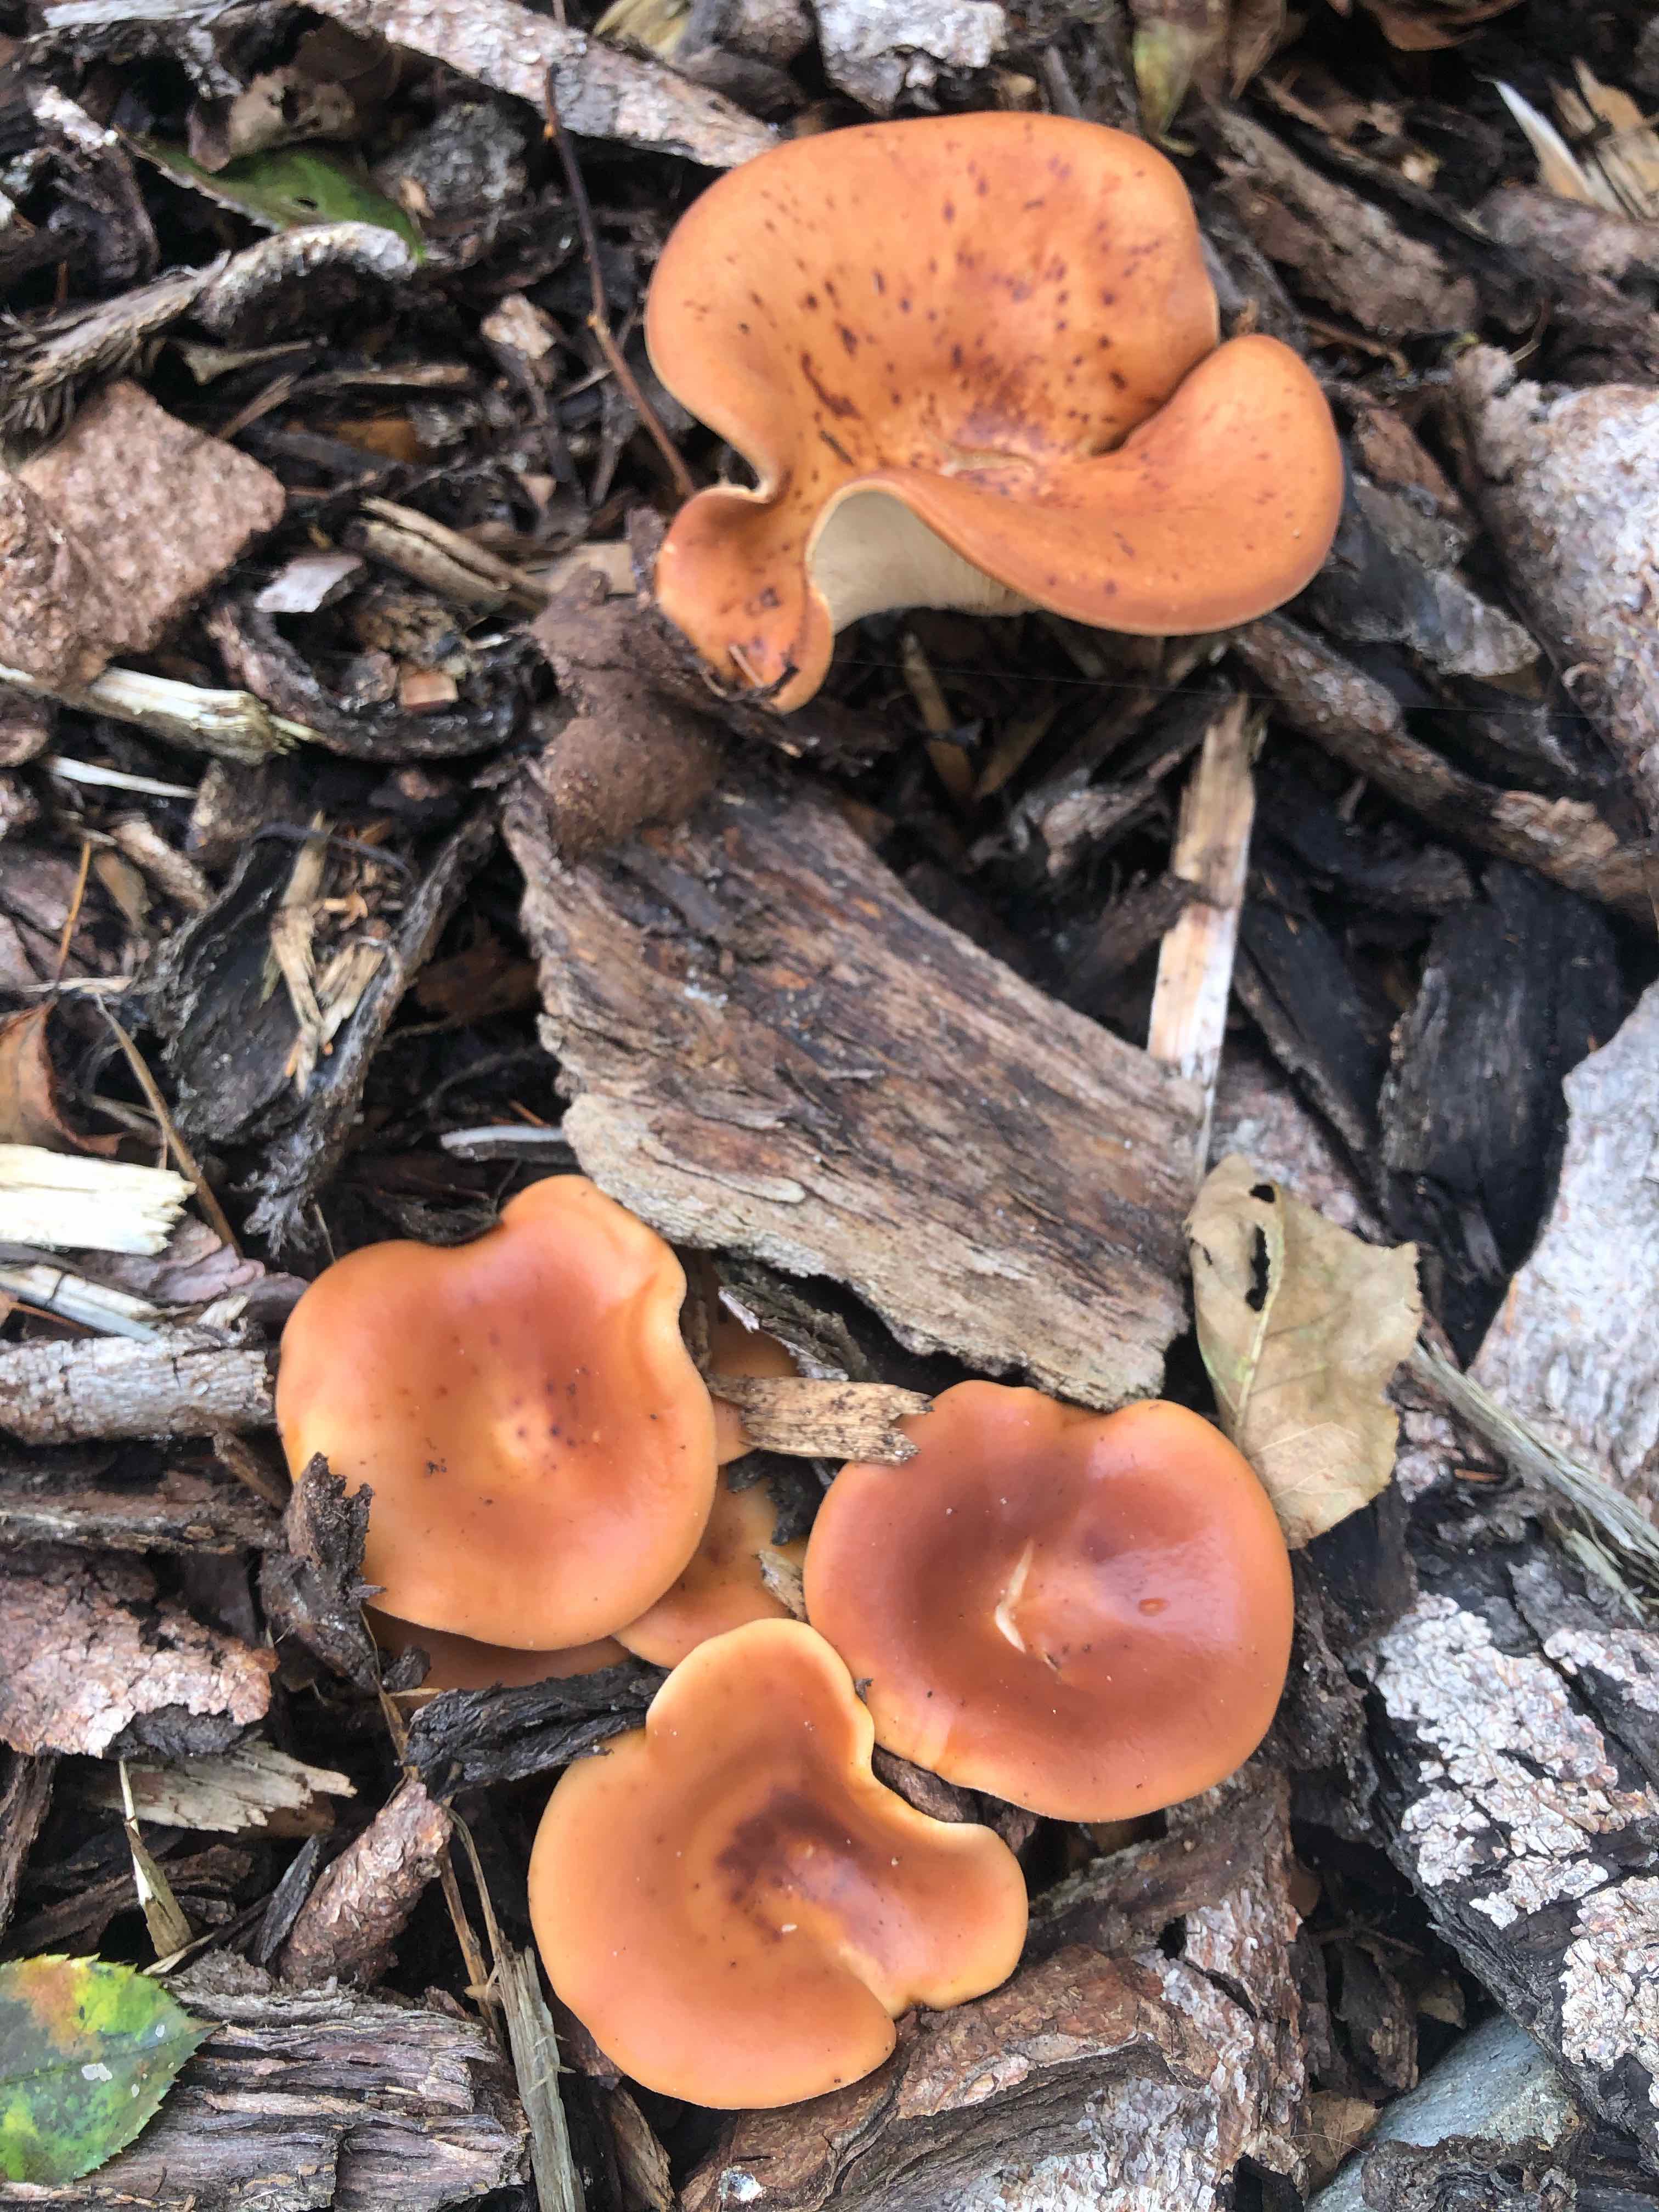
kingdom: Fungi
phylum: Basidiomycota
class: Agaricomycetes
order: Agaricales
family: Tricholomataceae
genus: Paralepista
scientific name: Paralepista flaccida
